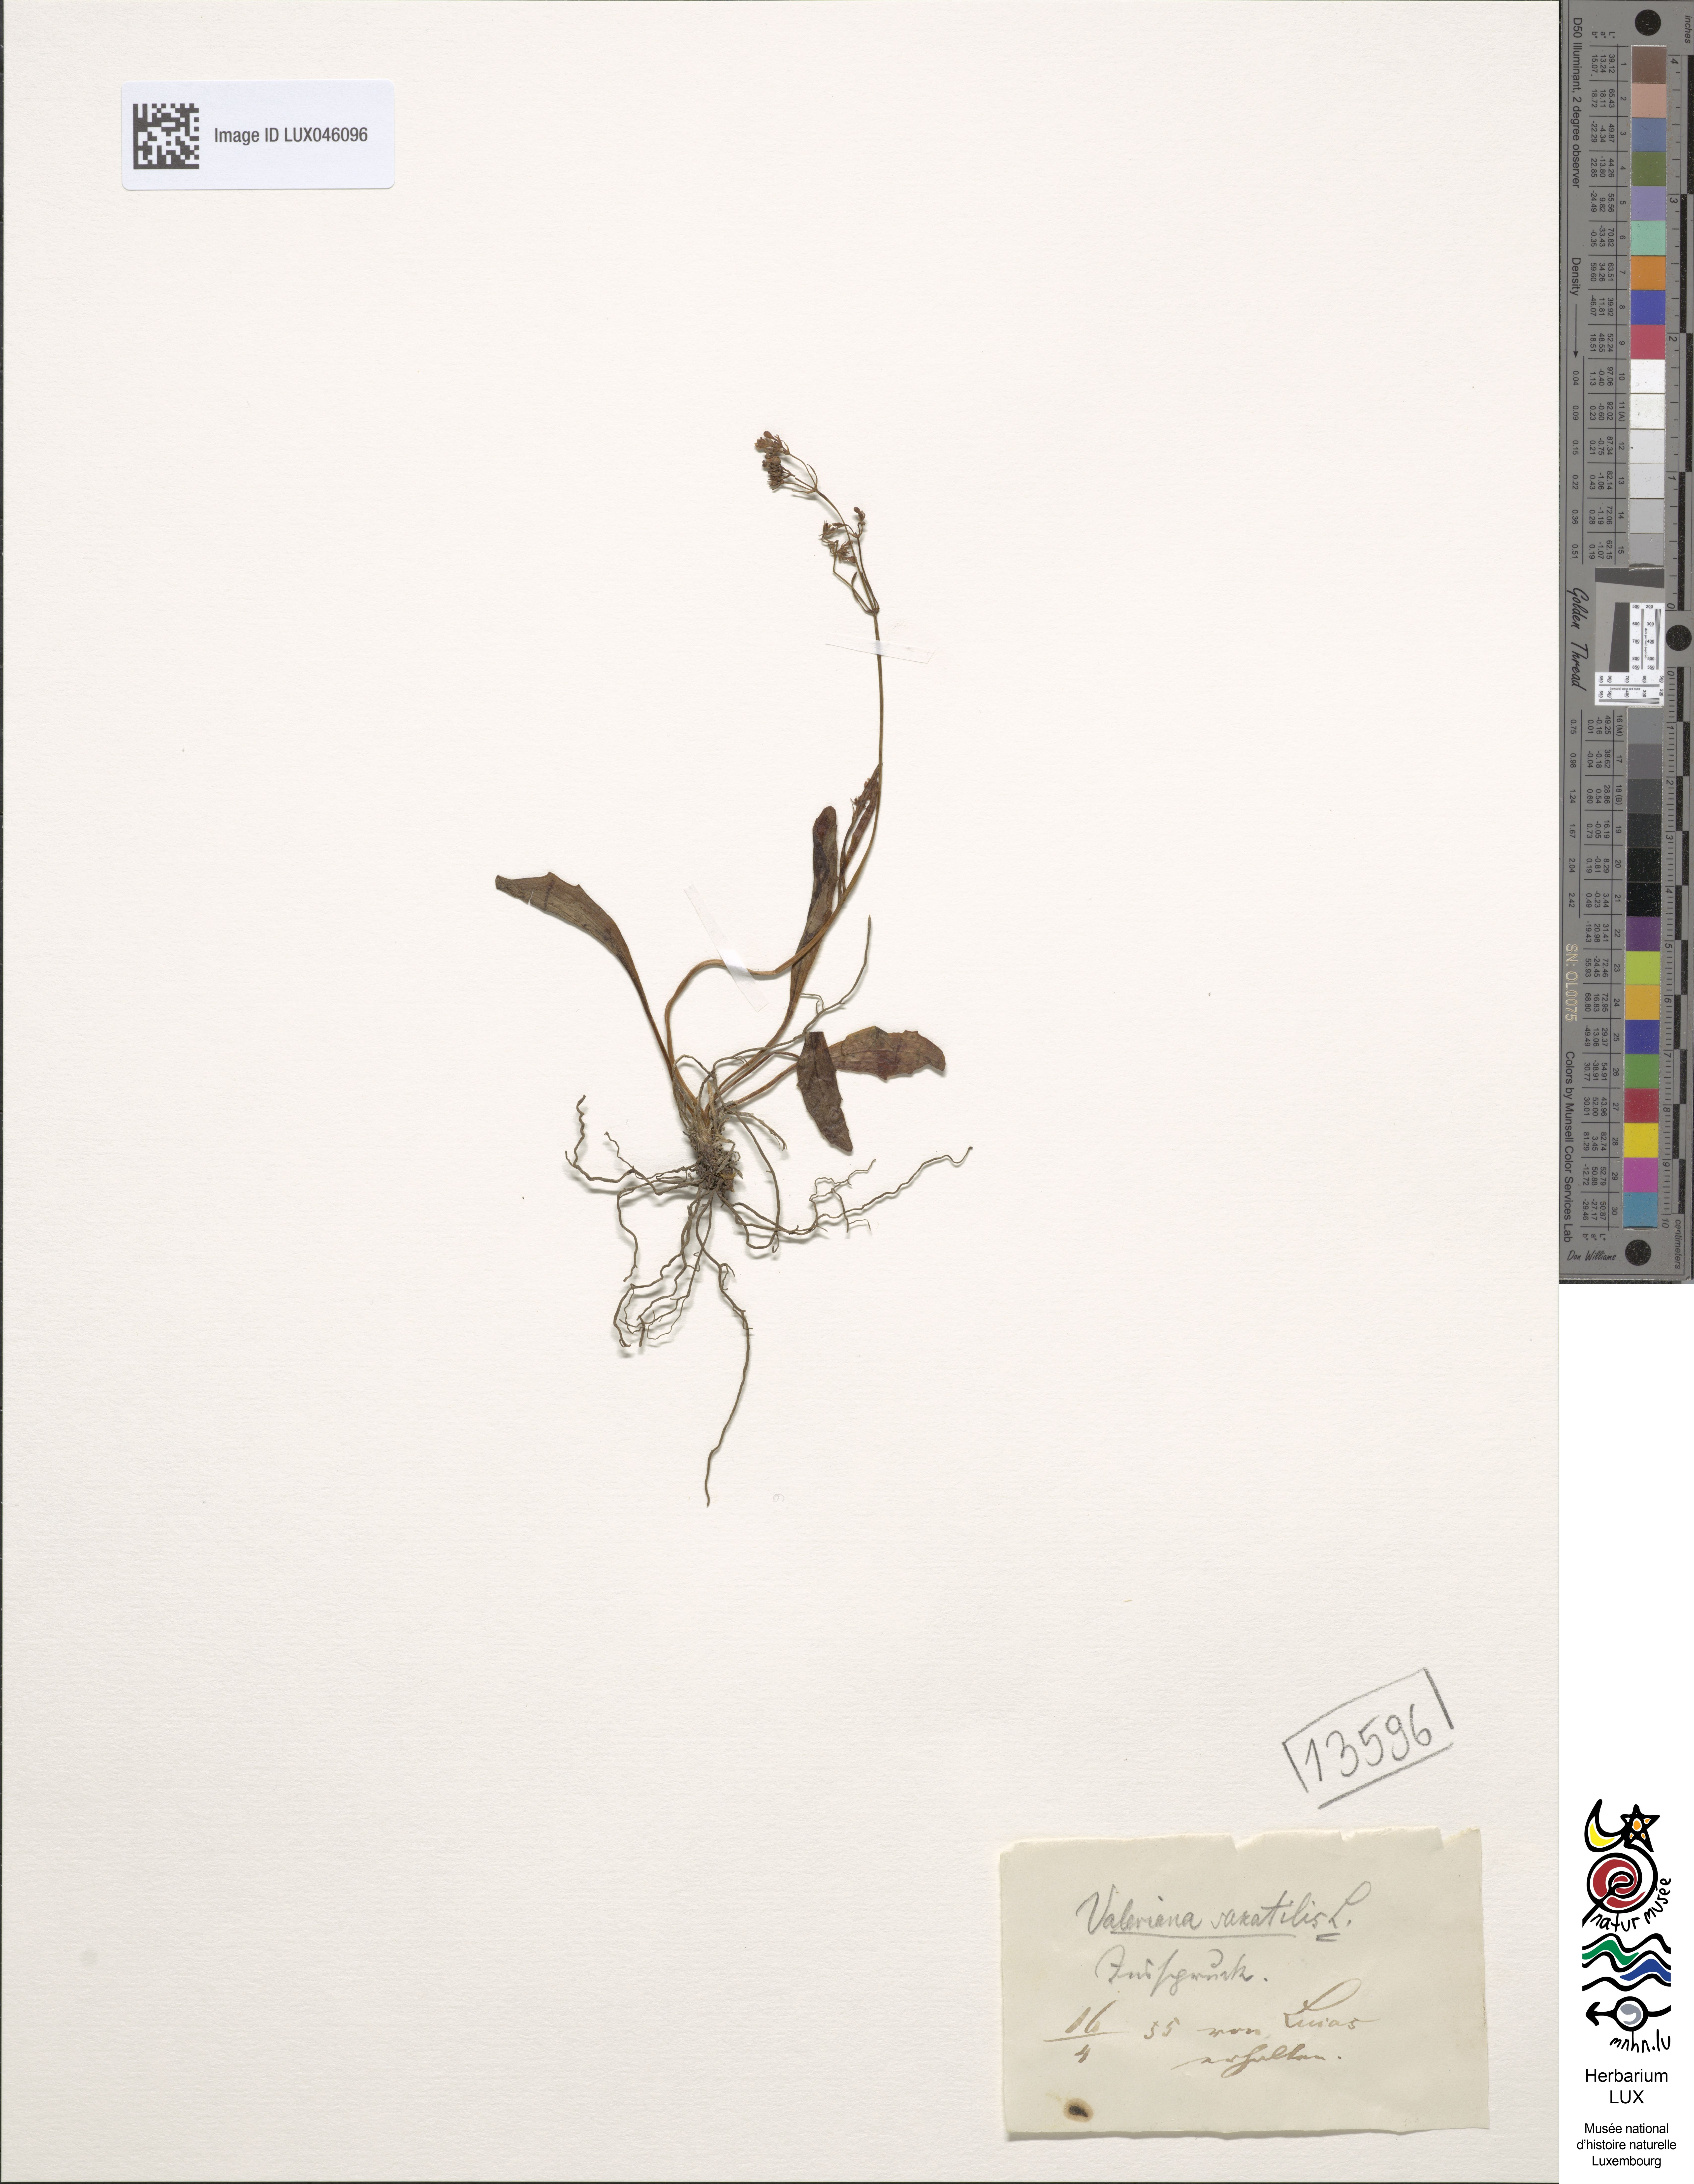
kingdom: Plantae
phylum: Tracheophyta
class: Magnoliopsida
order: Dipsacales
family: Caprifoliaceae
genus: Valeriana
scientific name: Valeriana saxatilis
